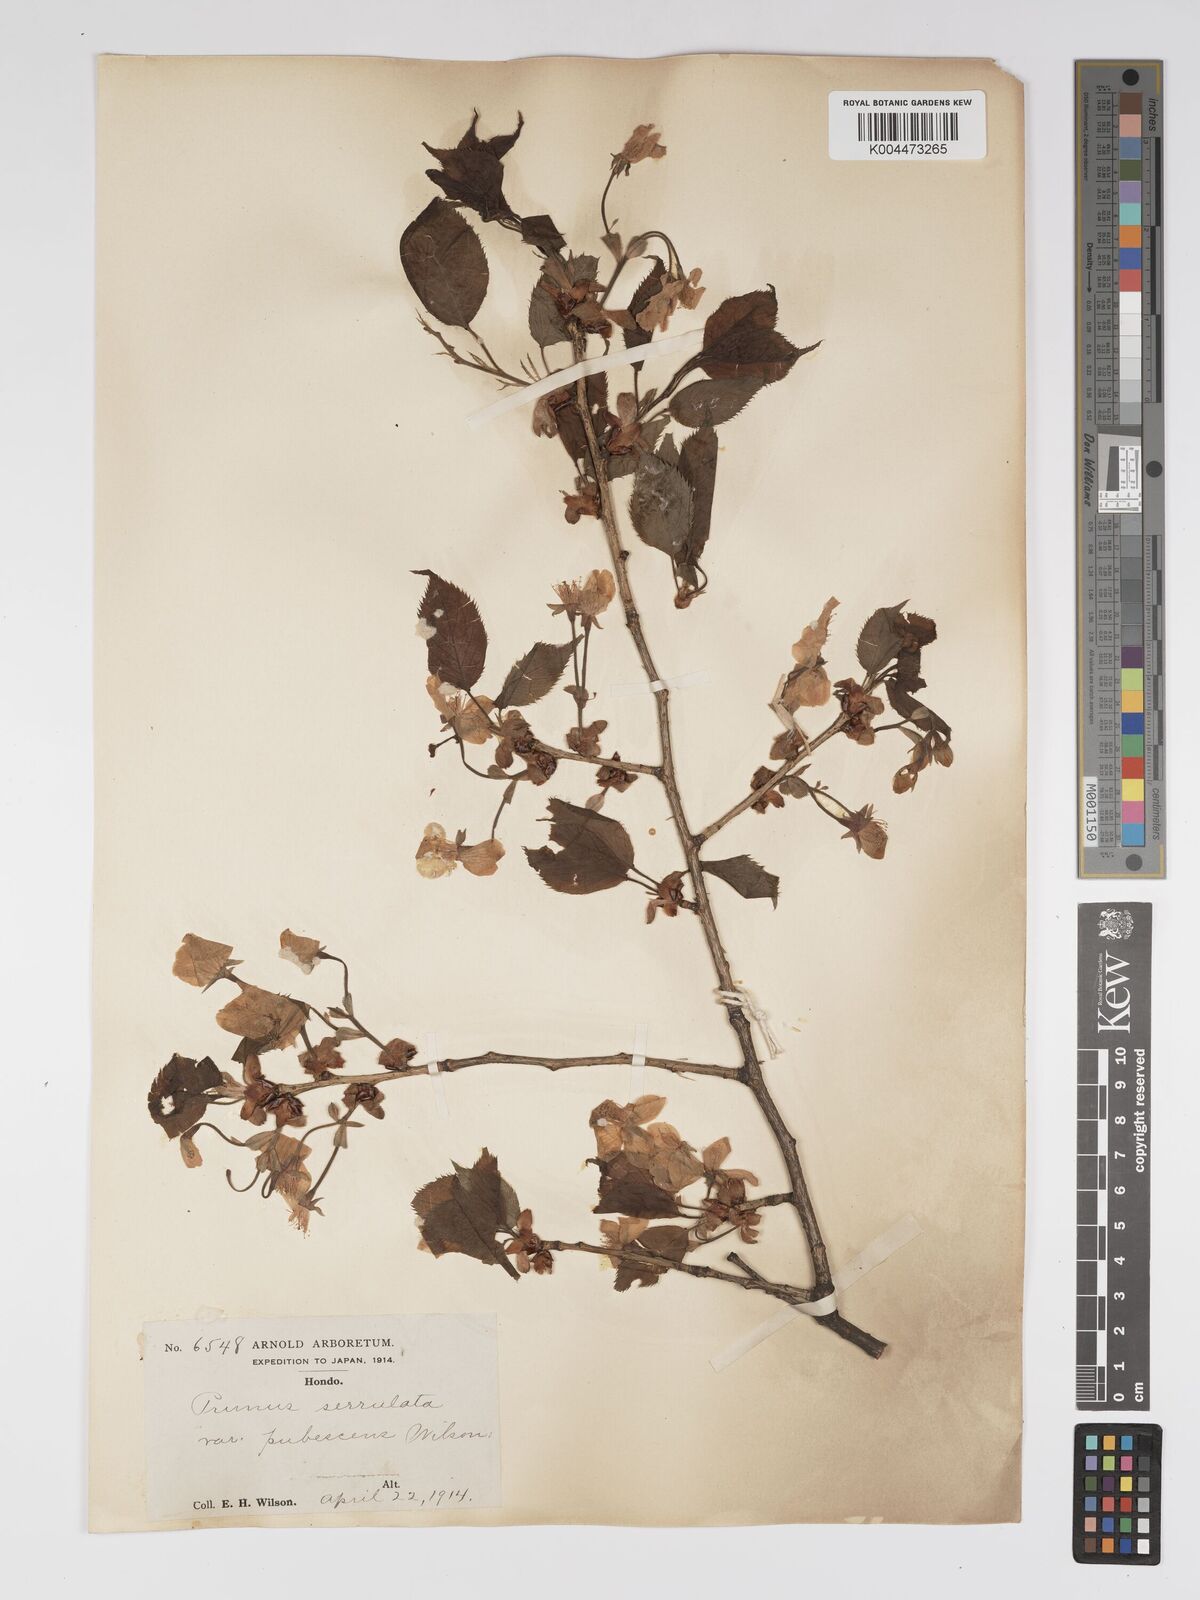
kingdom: Plantae
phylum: Tracheophyta
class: Magnoliopsida
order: Rosales
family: Rosaceae
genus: Prunus
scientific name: Prunus serrulata
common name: Japanese cherry
